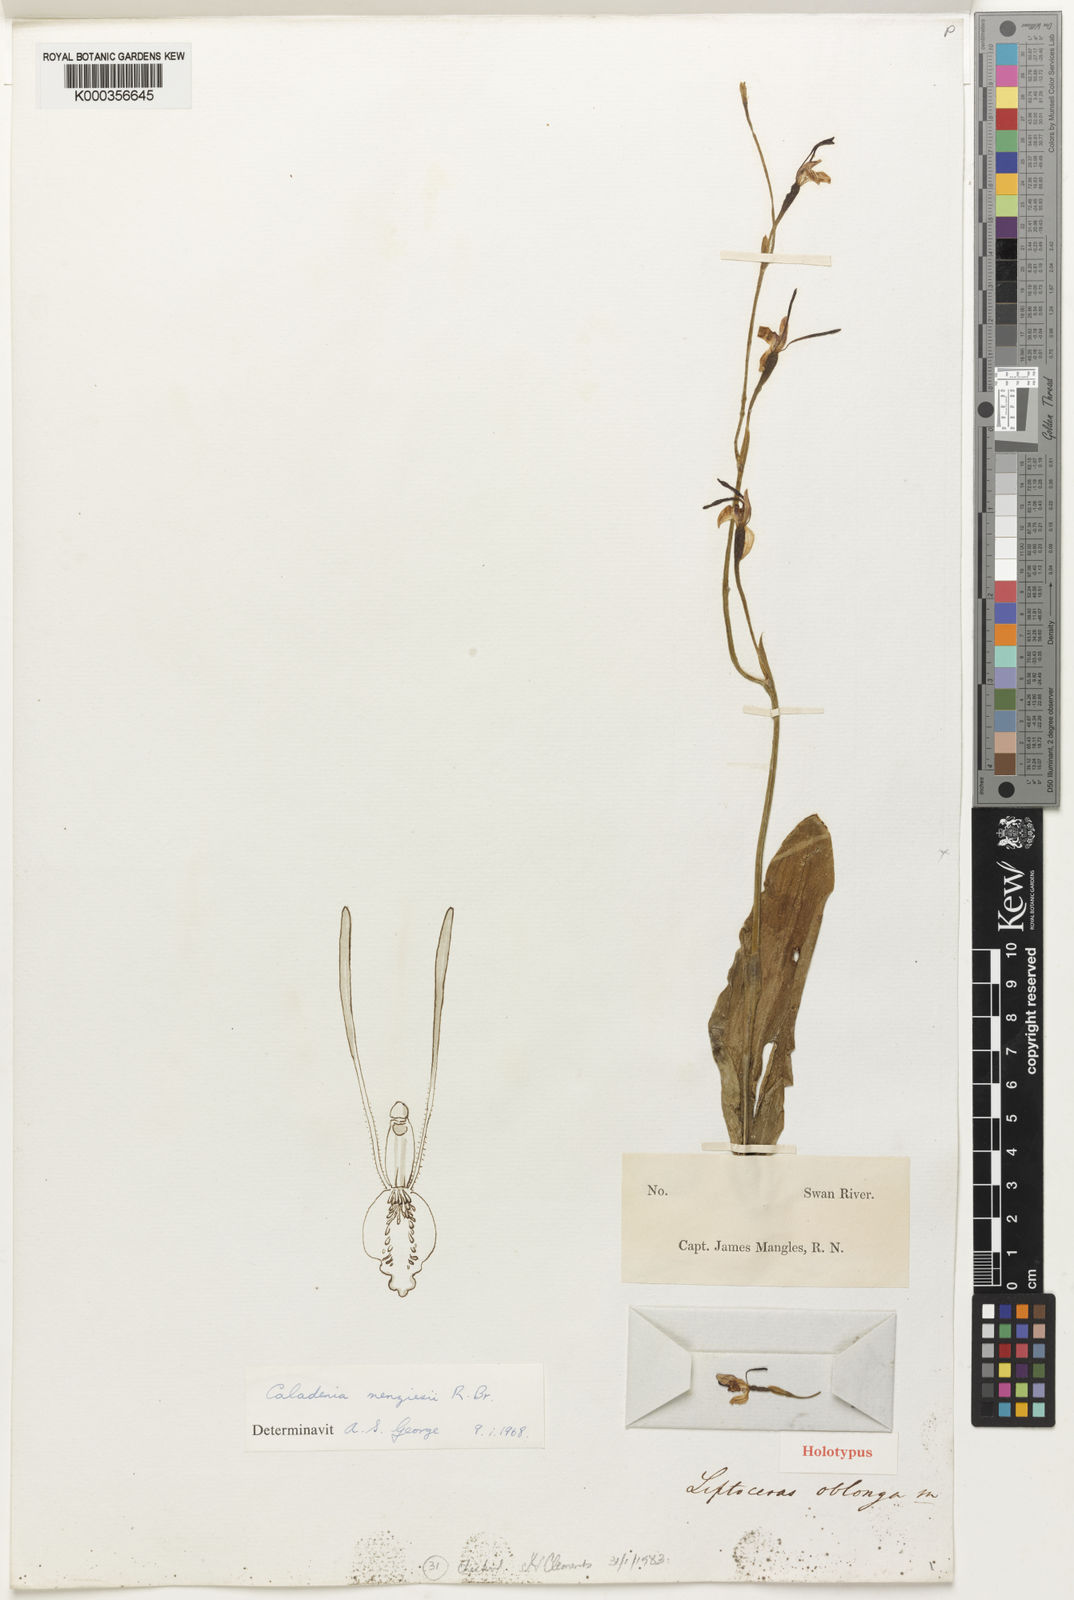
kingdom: Plantae
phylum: Tracheophyta
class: Liliopsida
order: Asparagales
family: Orchidaceae
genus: Leptoceras
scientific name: Leptoceras menziesii
